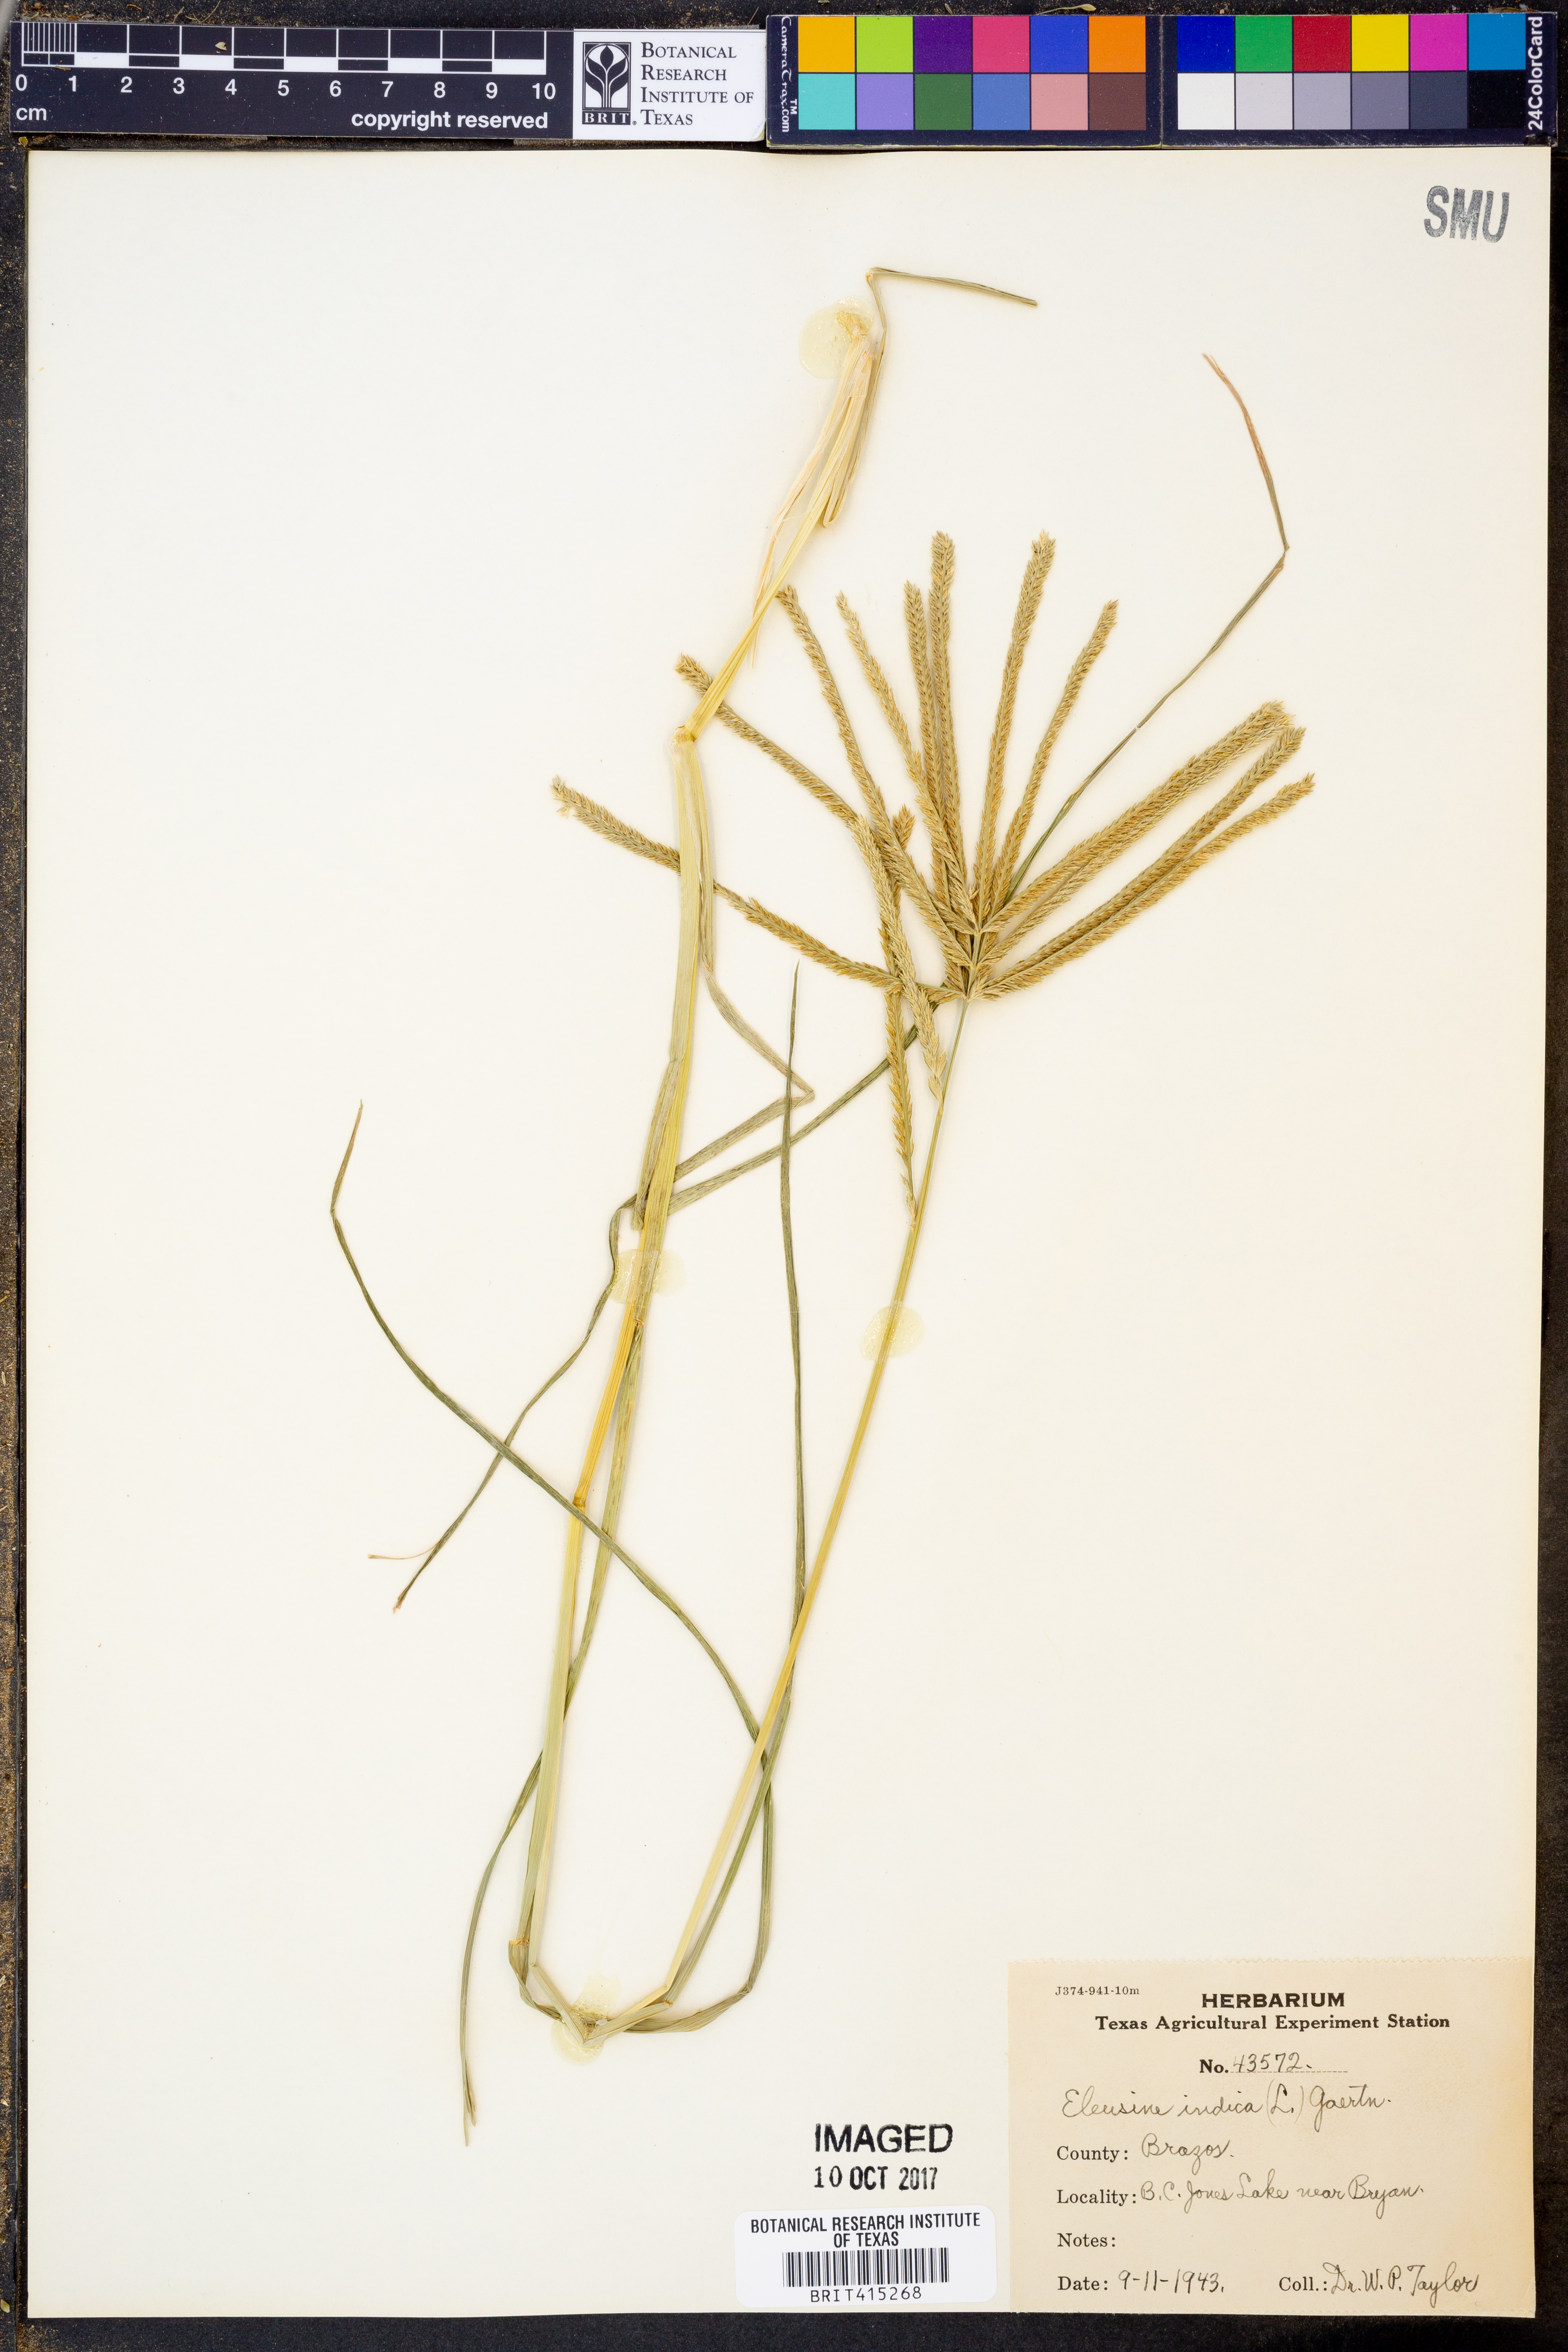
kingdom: Plantae
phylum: Tracheophyta
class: Liliopsida
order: Poales
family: Poaceae
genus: Eleusine
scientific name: Eleusine indica
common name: Yard-grass
